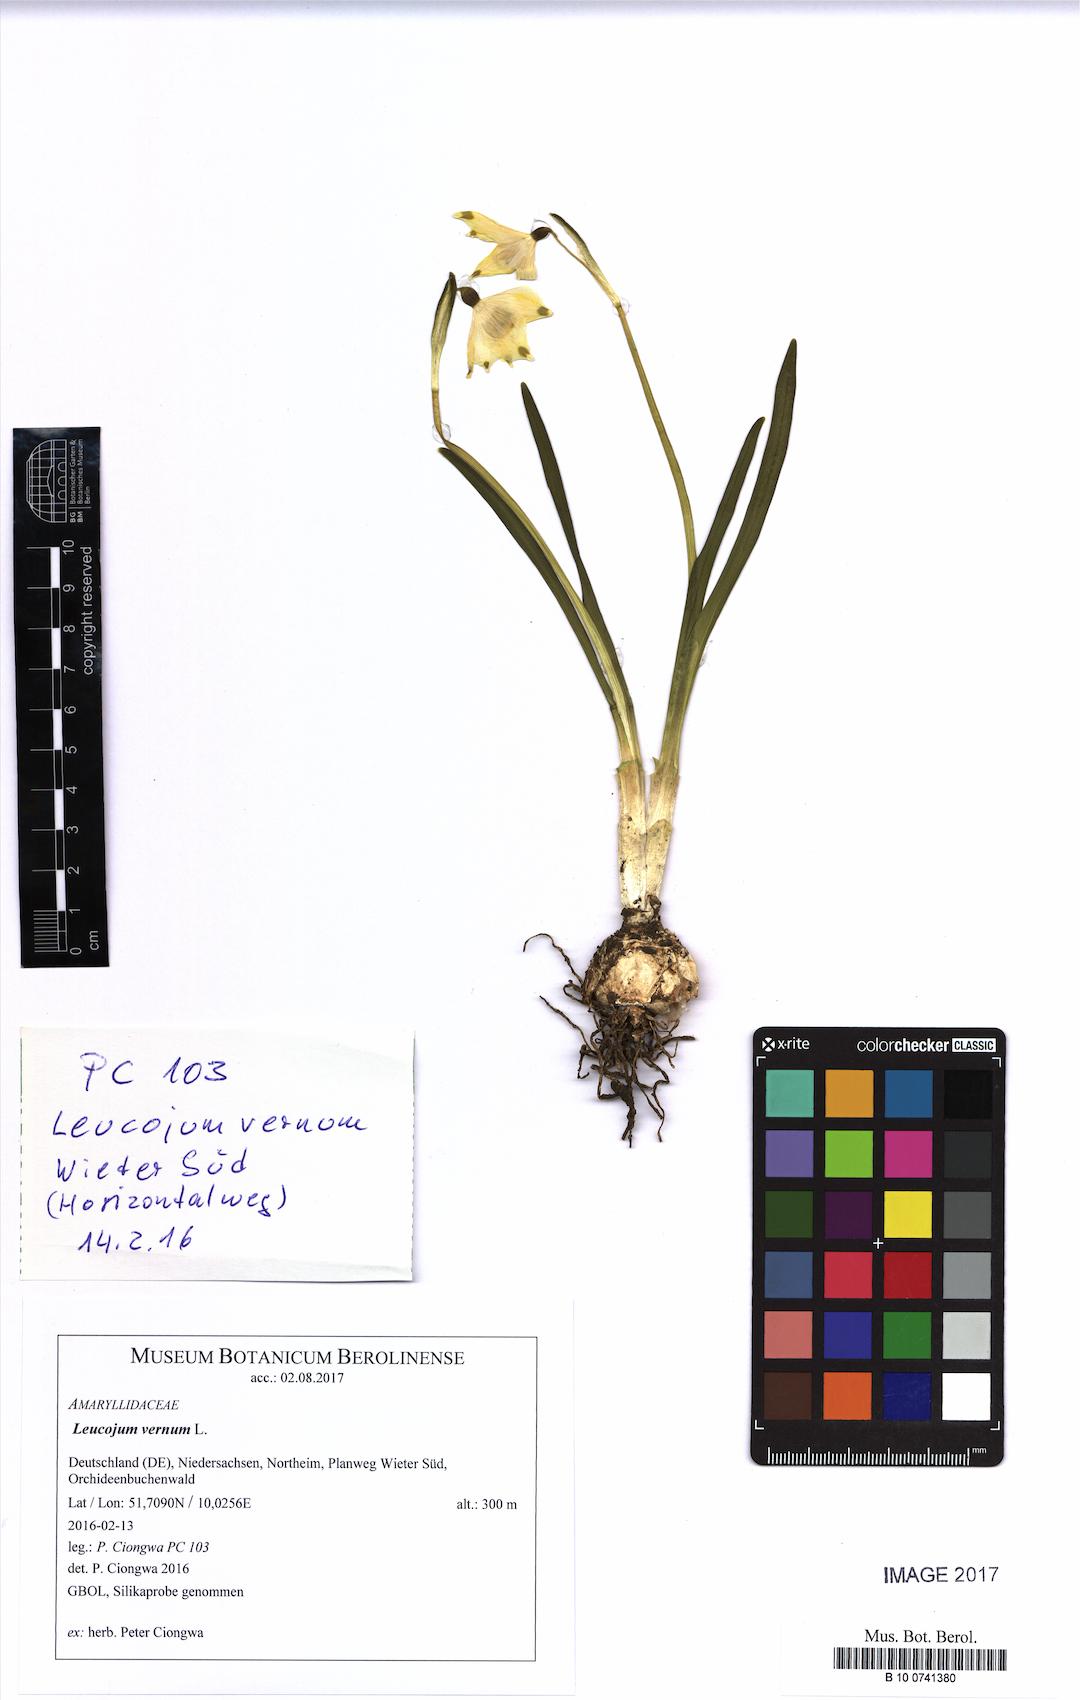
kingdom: Plantae
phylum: Tracheophyta
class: Liliopsida
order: Asparagales
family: Amaryllidaceae
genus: Leucojum
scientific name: Leucojum vernum
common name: Spring snowflake
